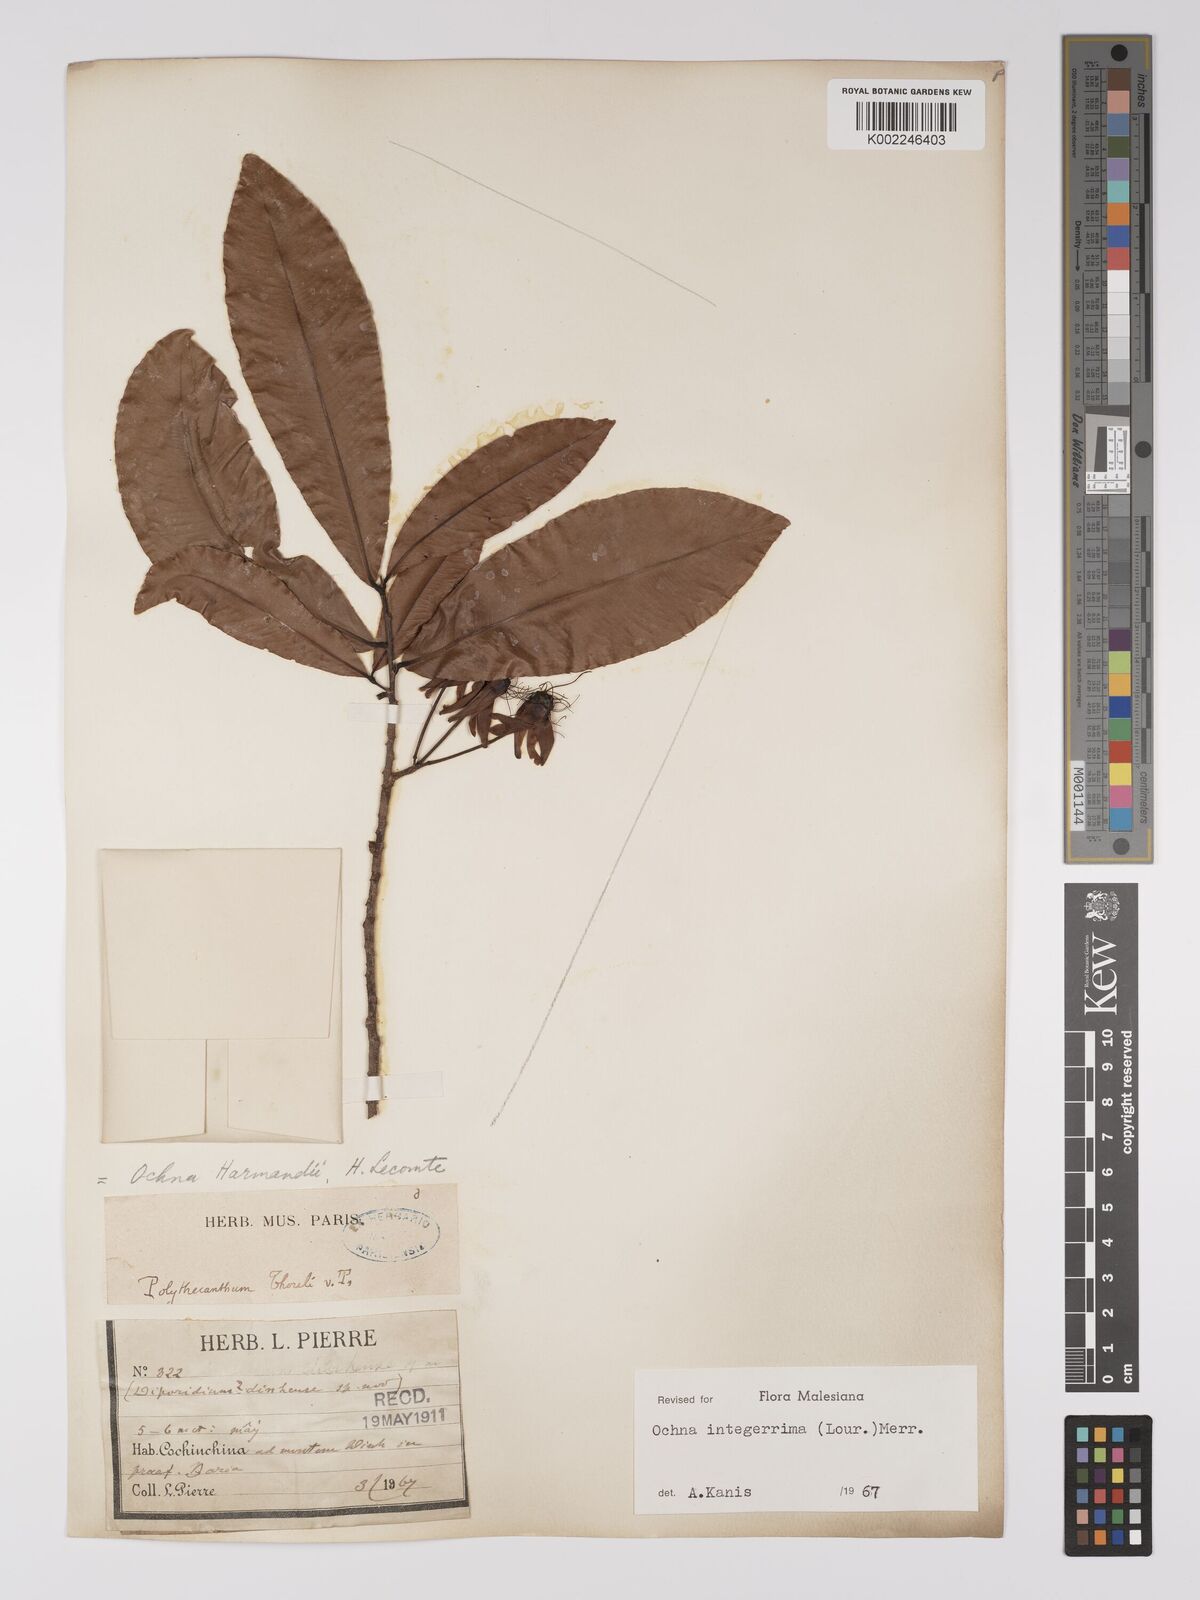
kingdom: Plantae
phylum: Tracheophyta
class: Magnoliopsida
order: Malpighiales
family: Ochnaceae
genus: Ochna
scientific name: Ochna integerrima
